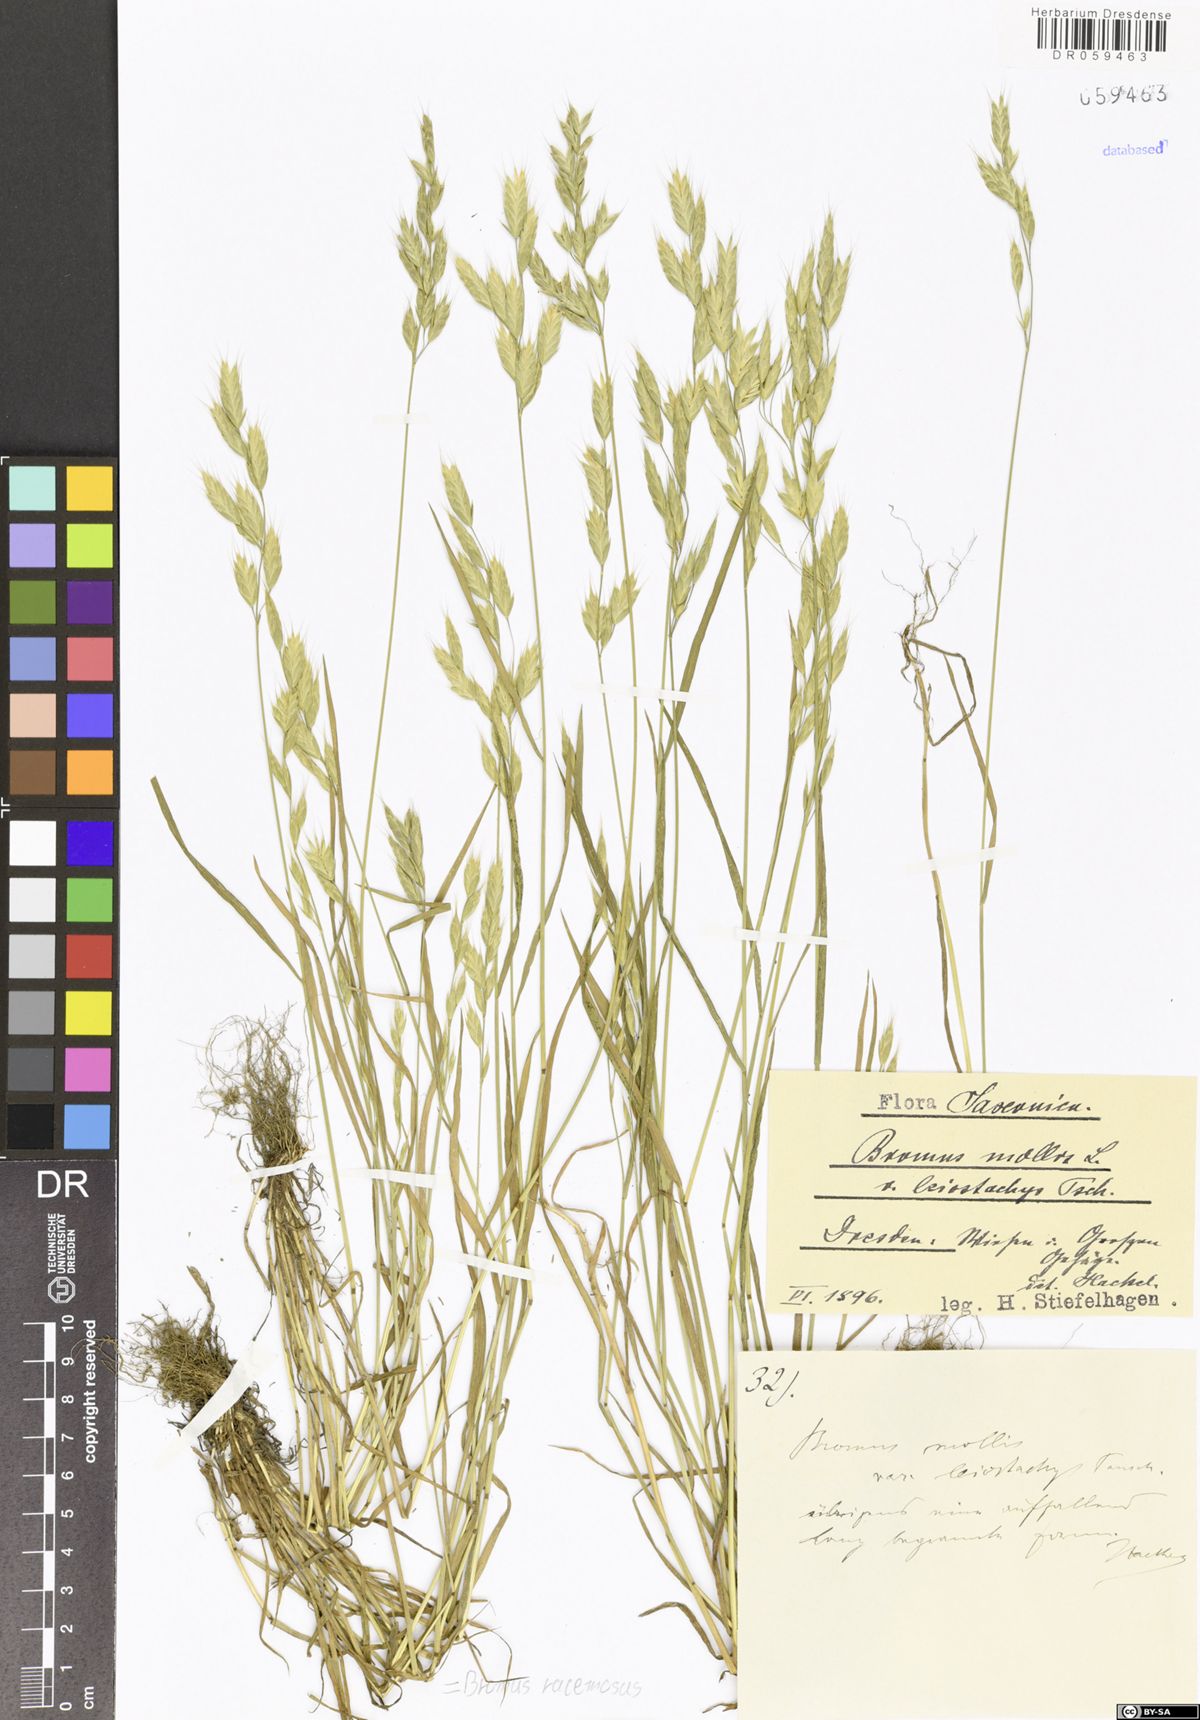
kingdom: Plantae
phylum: Tracheophyta
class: Liliopsida
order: Poales
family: Poaceae
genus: Bromus
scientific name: Bromus racemosus
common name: Bald brome
